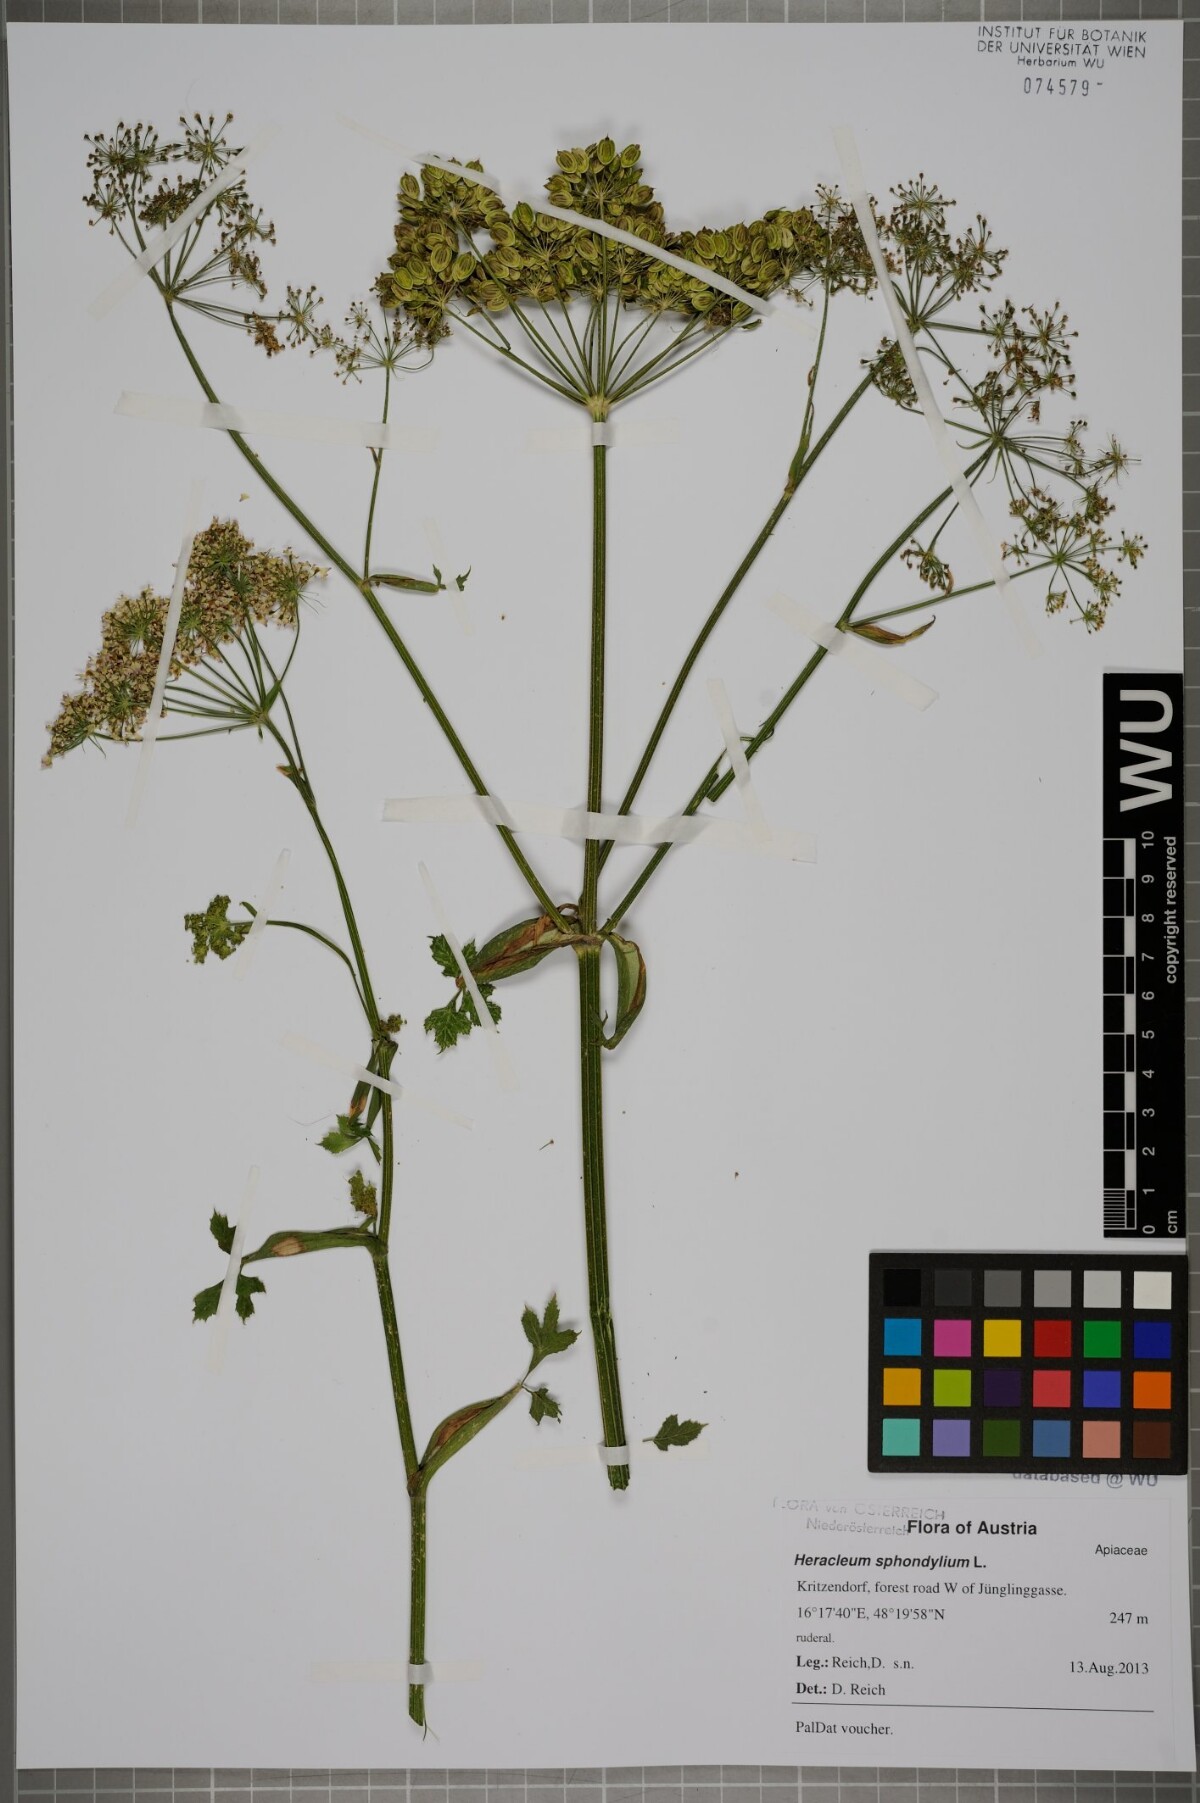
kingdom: Plantae
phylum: Tracheophyta
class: Magnoliopsida
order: Apiales
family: Apiaceae
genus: Heracleum
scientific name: Heracleum sphondylium
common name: Hogweed
